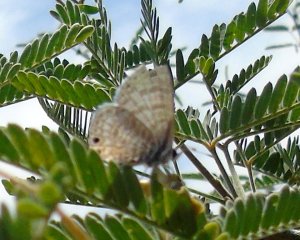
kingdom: Animalia
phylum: Arthropoda
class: Insecta
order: Lepidoptera
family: Lycaenidae
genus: Leptotes
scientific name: Leptotes marina
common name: Marine Blue
